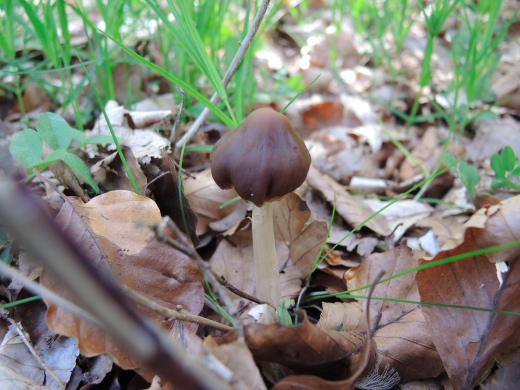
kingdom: Fungi
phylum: Basidiomycota
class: Agaricomycetes
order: Agaricales
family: Psathyrellaceae
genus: Psathyrella
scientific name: Psathyrella spadiceogrisea
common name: gråbrun mørkhat
